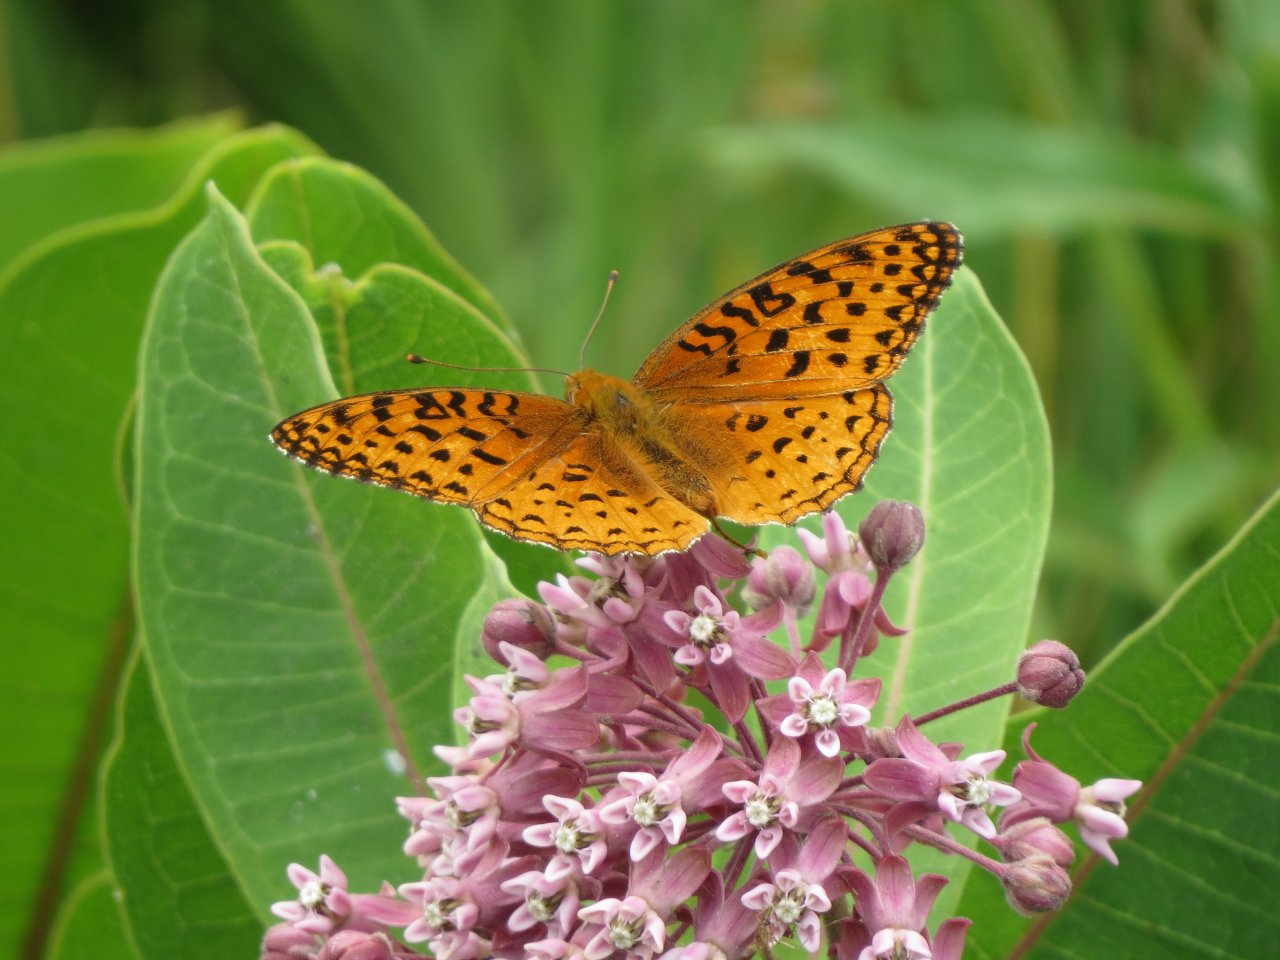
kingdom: Animalia
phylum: Arthropoda
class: Insecta
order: Lepidoptera
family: Nymphalidae
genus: Speyeria
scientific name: Speyeria aphrodite
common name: Aphrodite Fritillary
